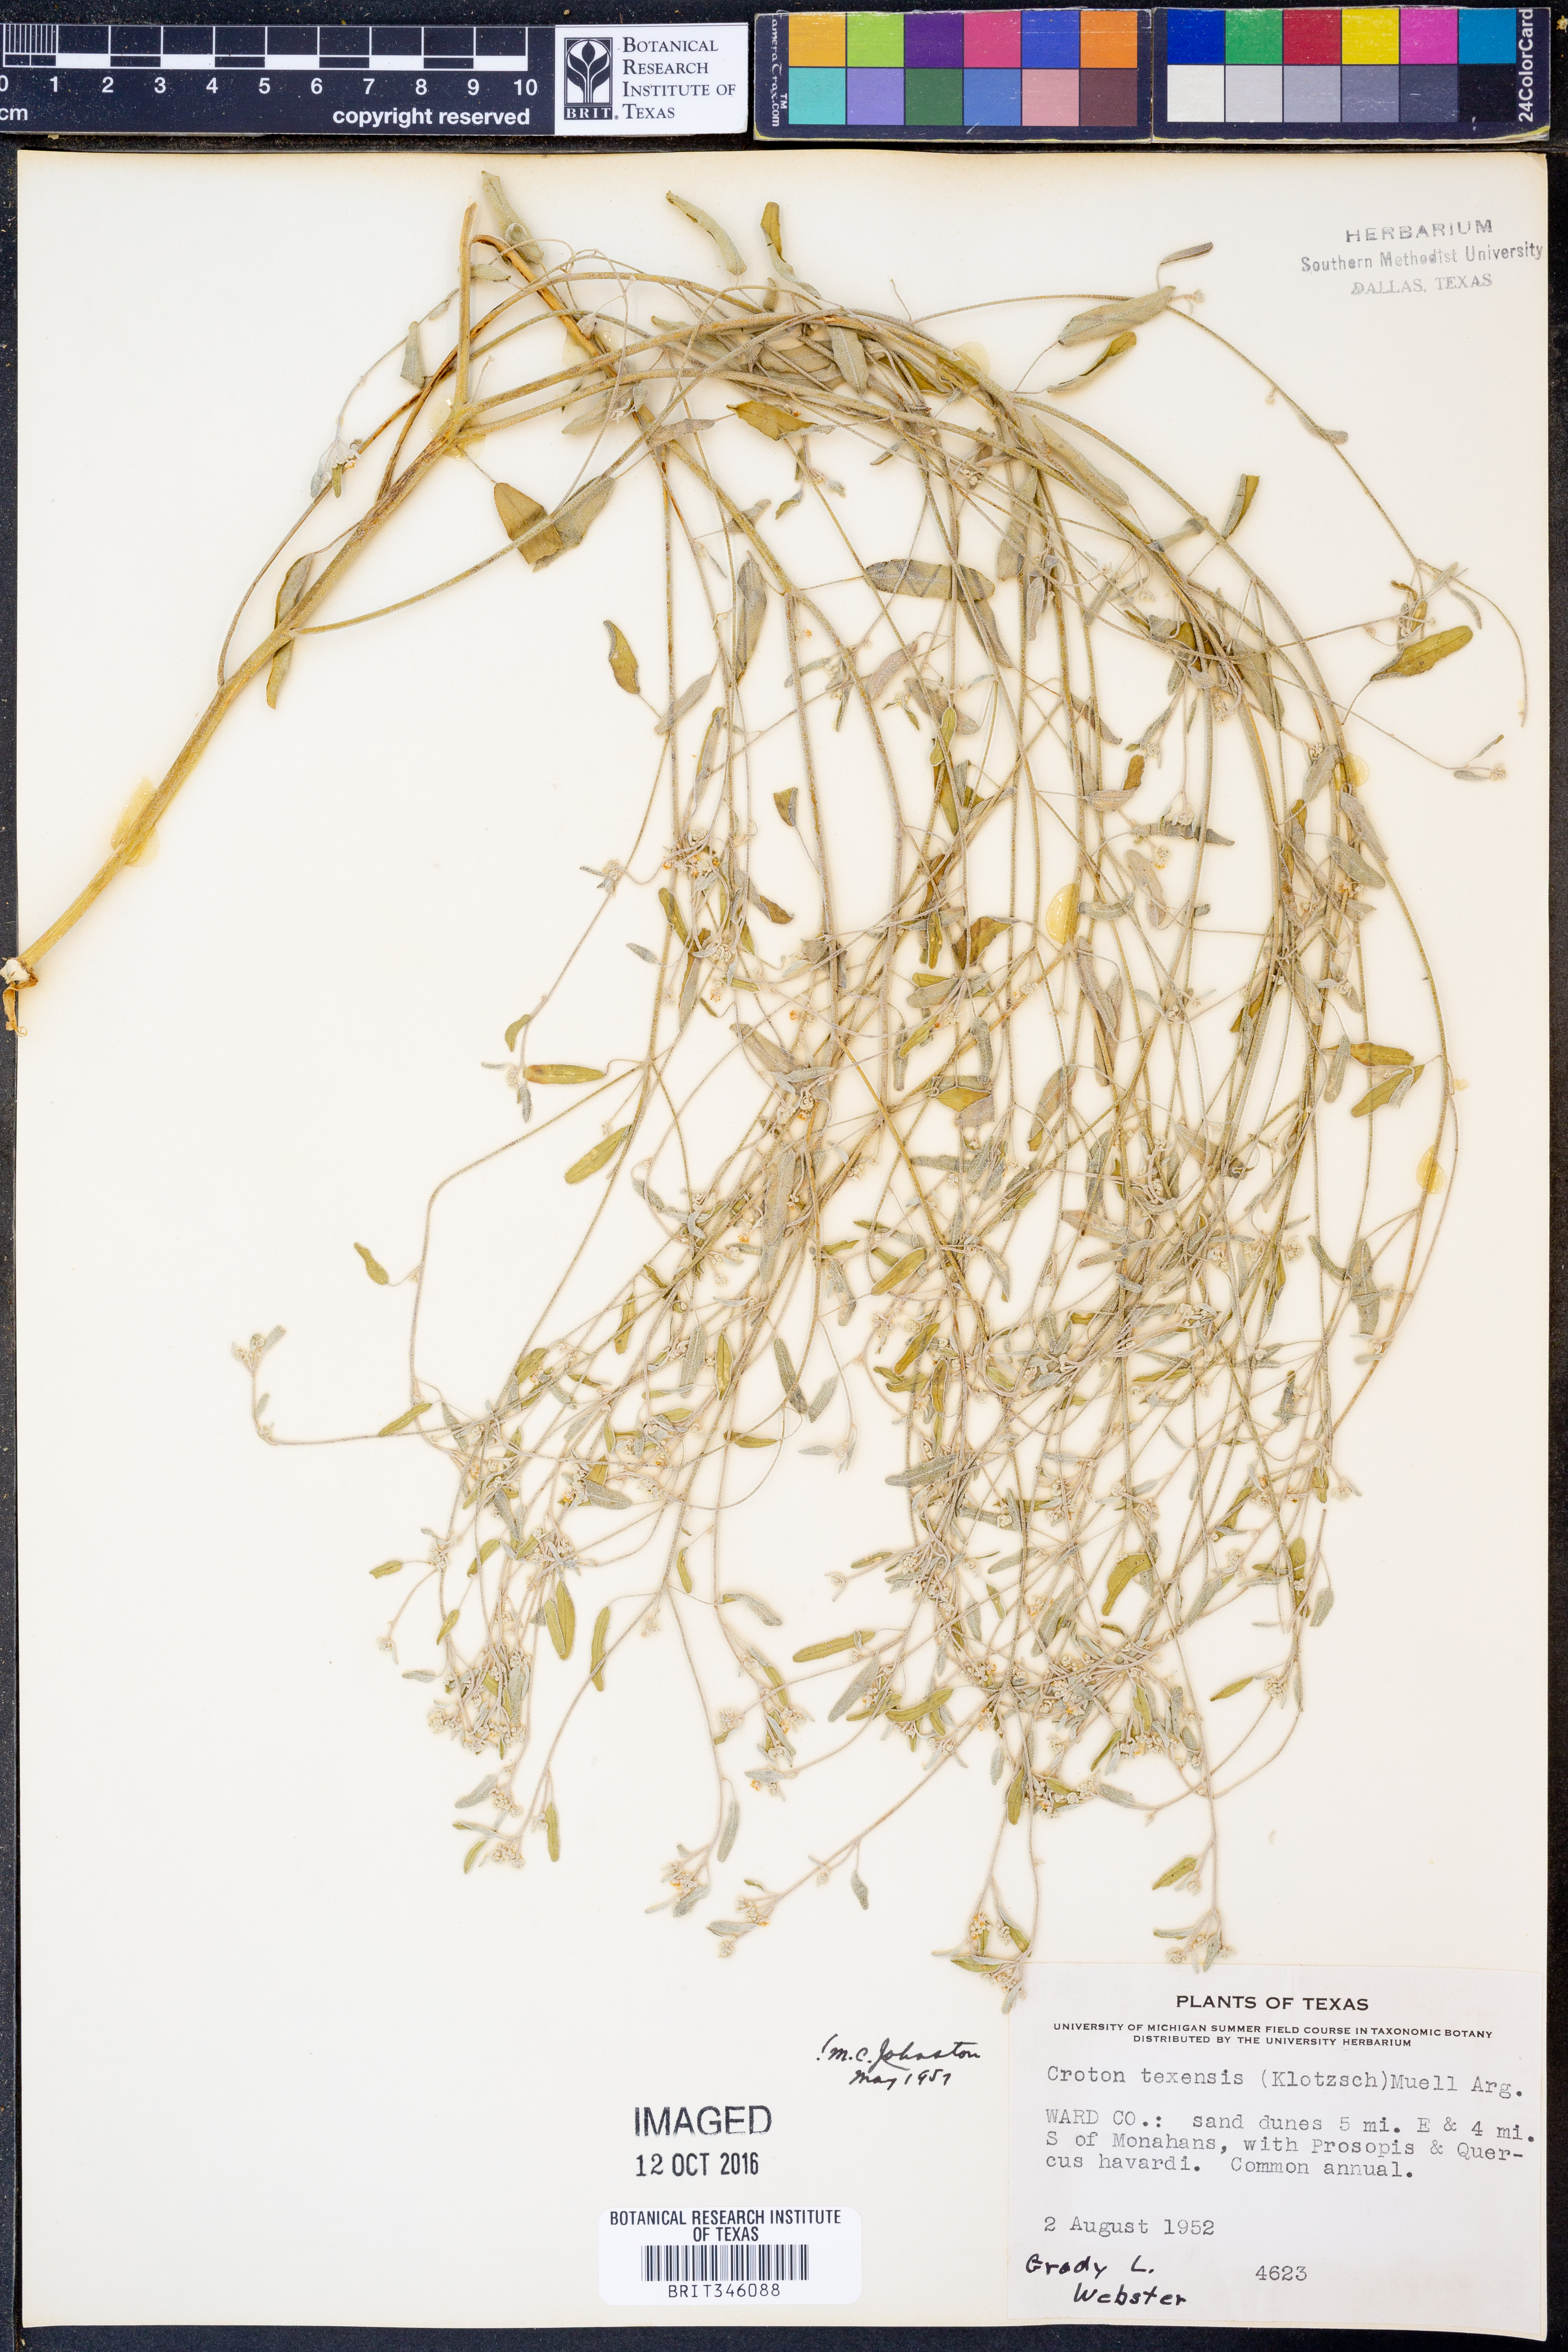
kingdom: Plantae
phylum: Tracheophyta
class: Magnoliopsida
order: Malpighiales
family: Euphorbiaceae
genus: Croton
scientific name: Croton texensis
